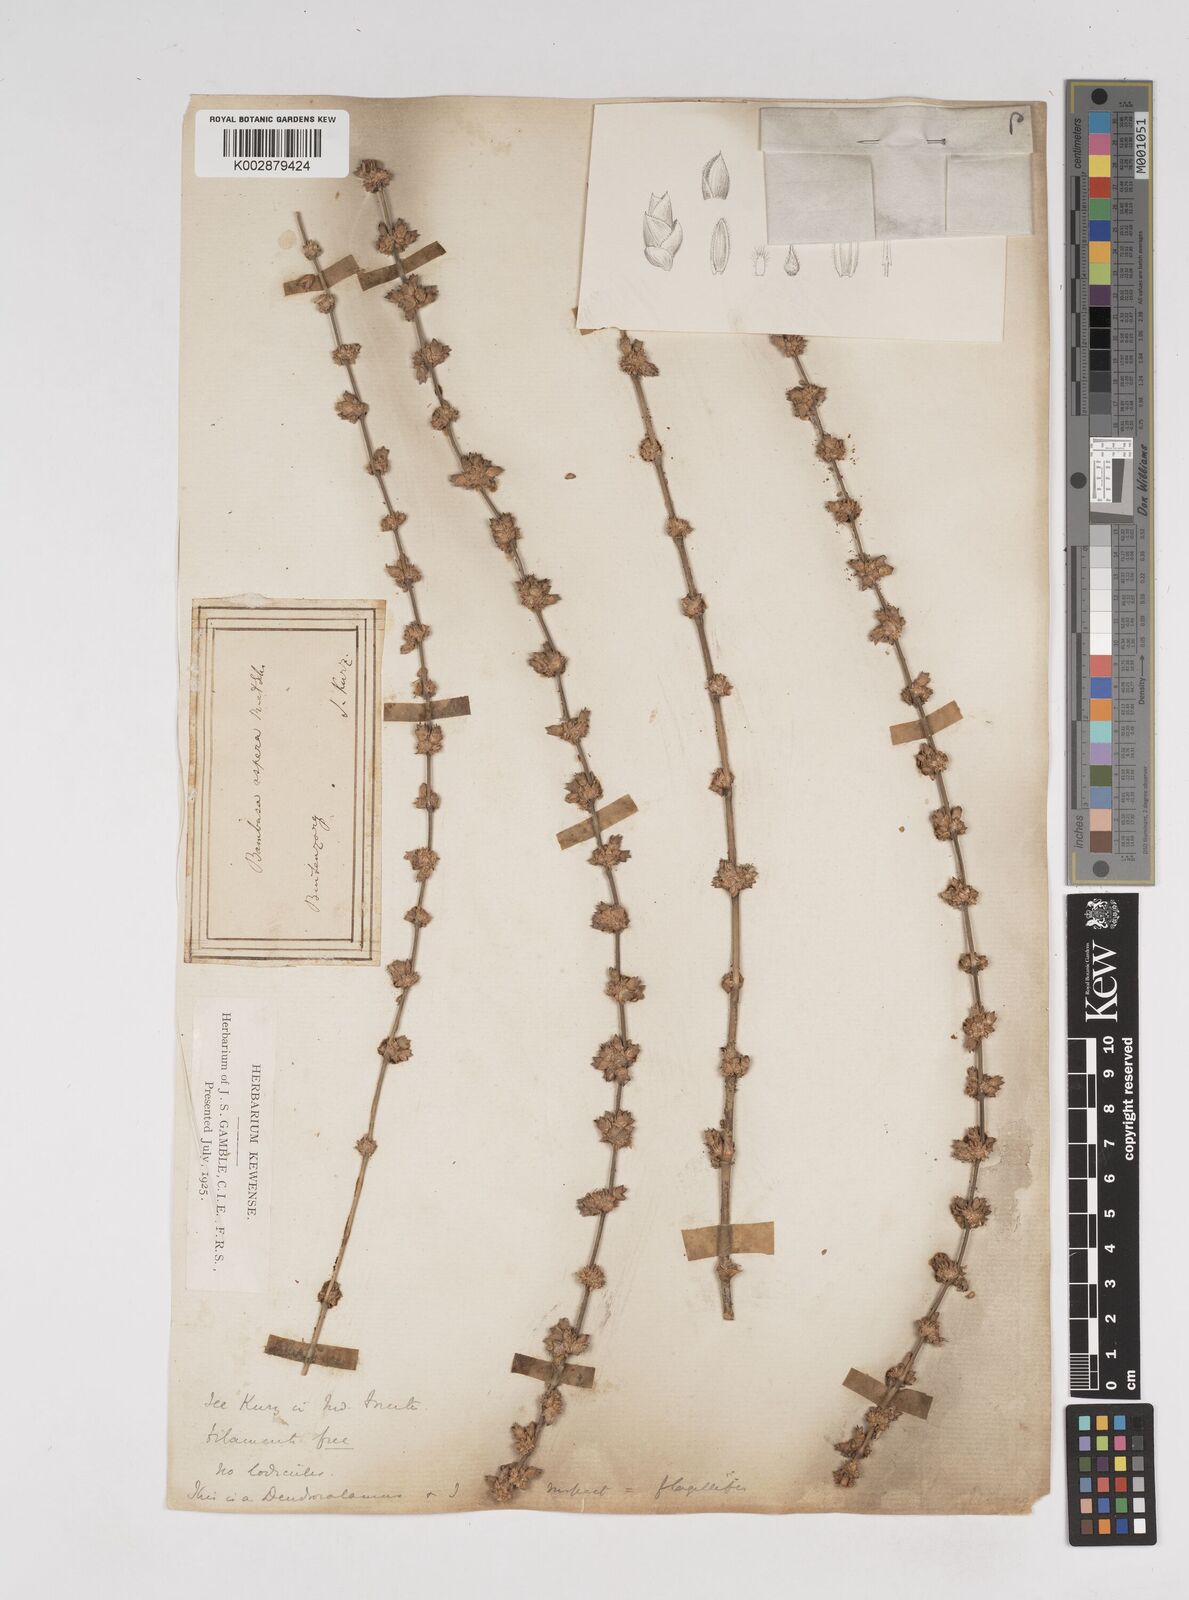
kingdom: Plantae
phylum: Tracheophyta
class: Liliopsida
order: Poales
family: Poaceae
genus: Dendrocalamus
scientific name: Dendrocalamus asper
